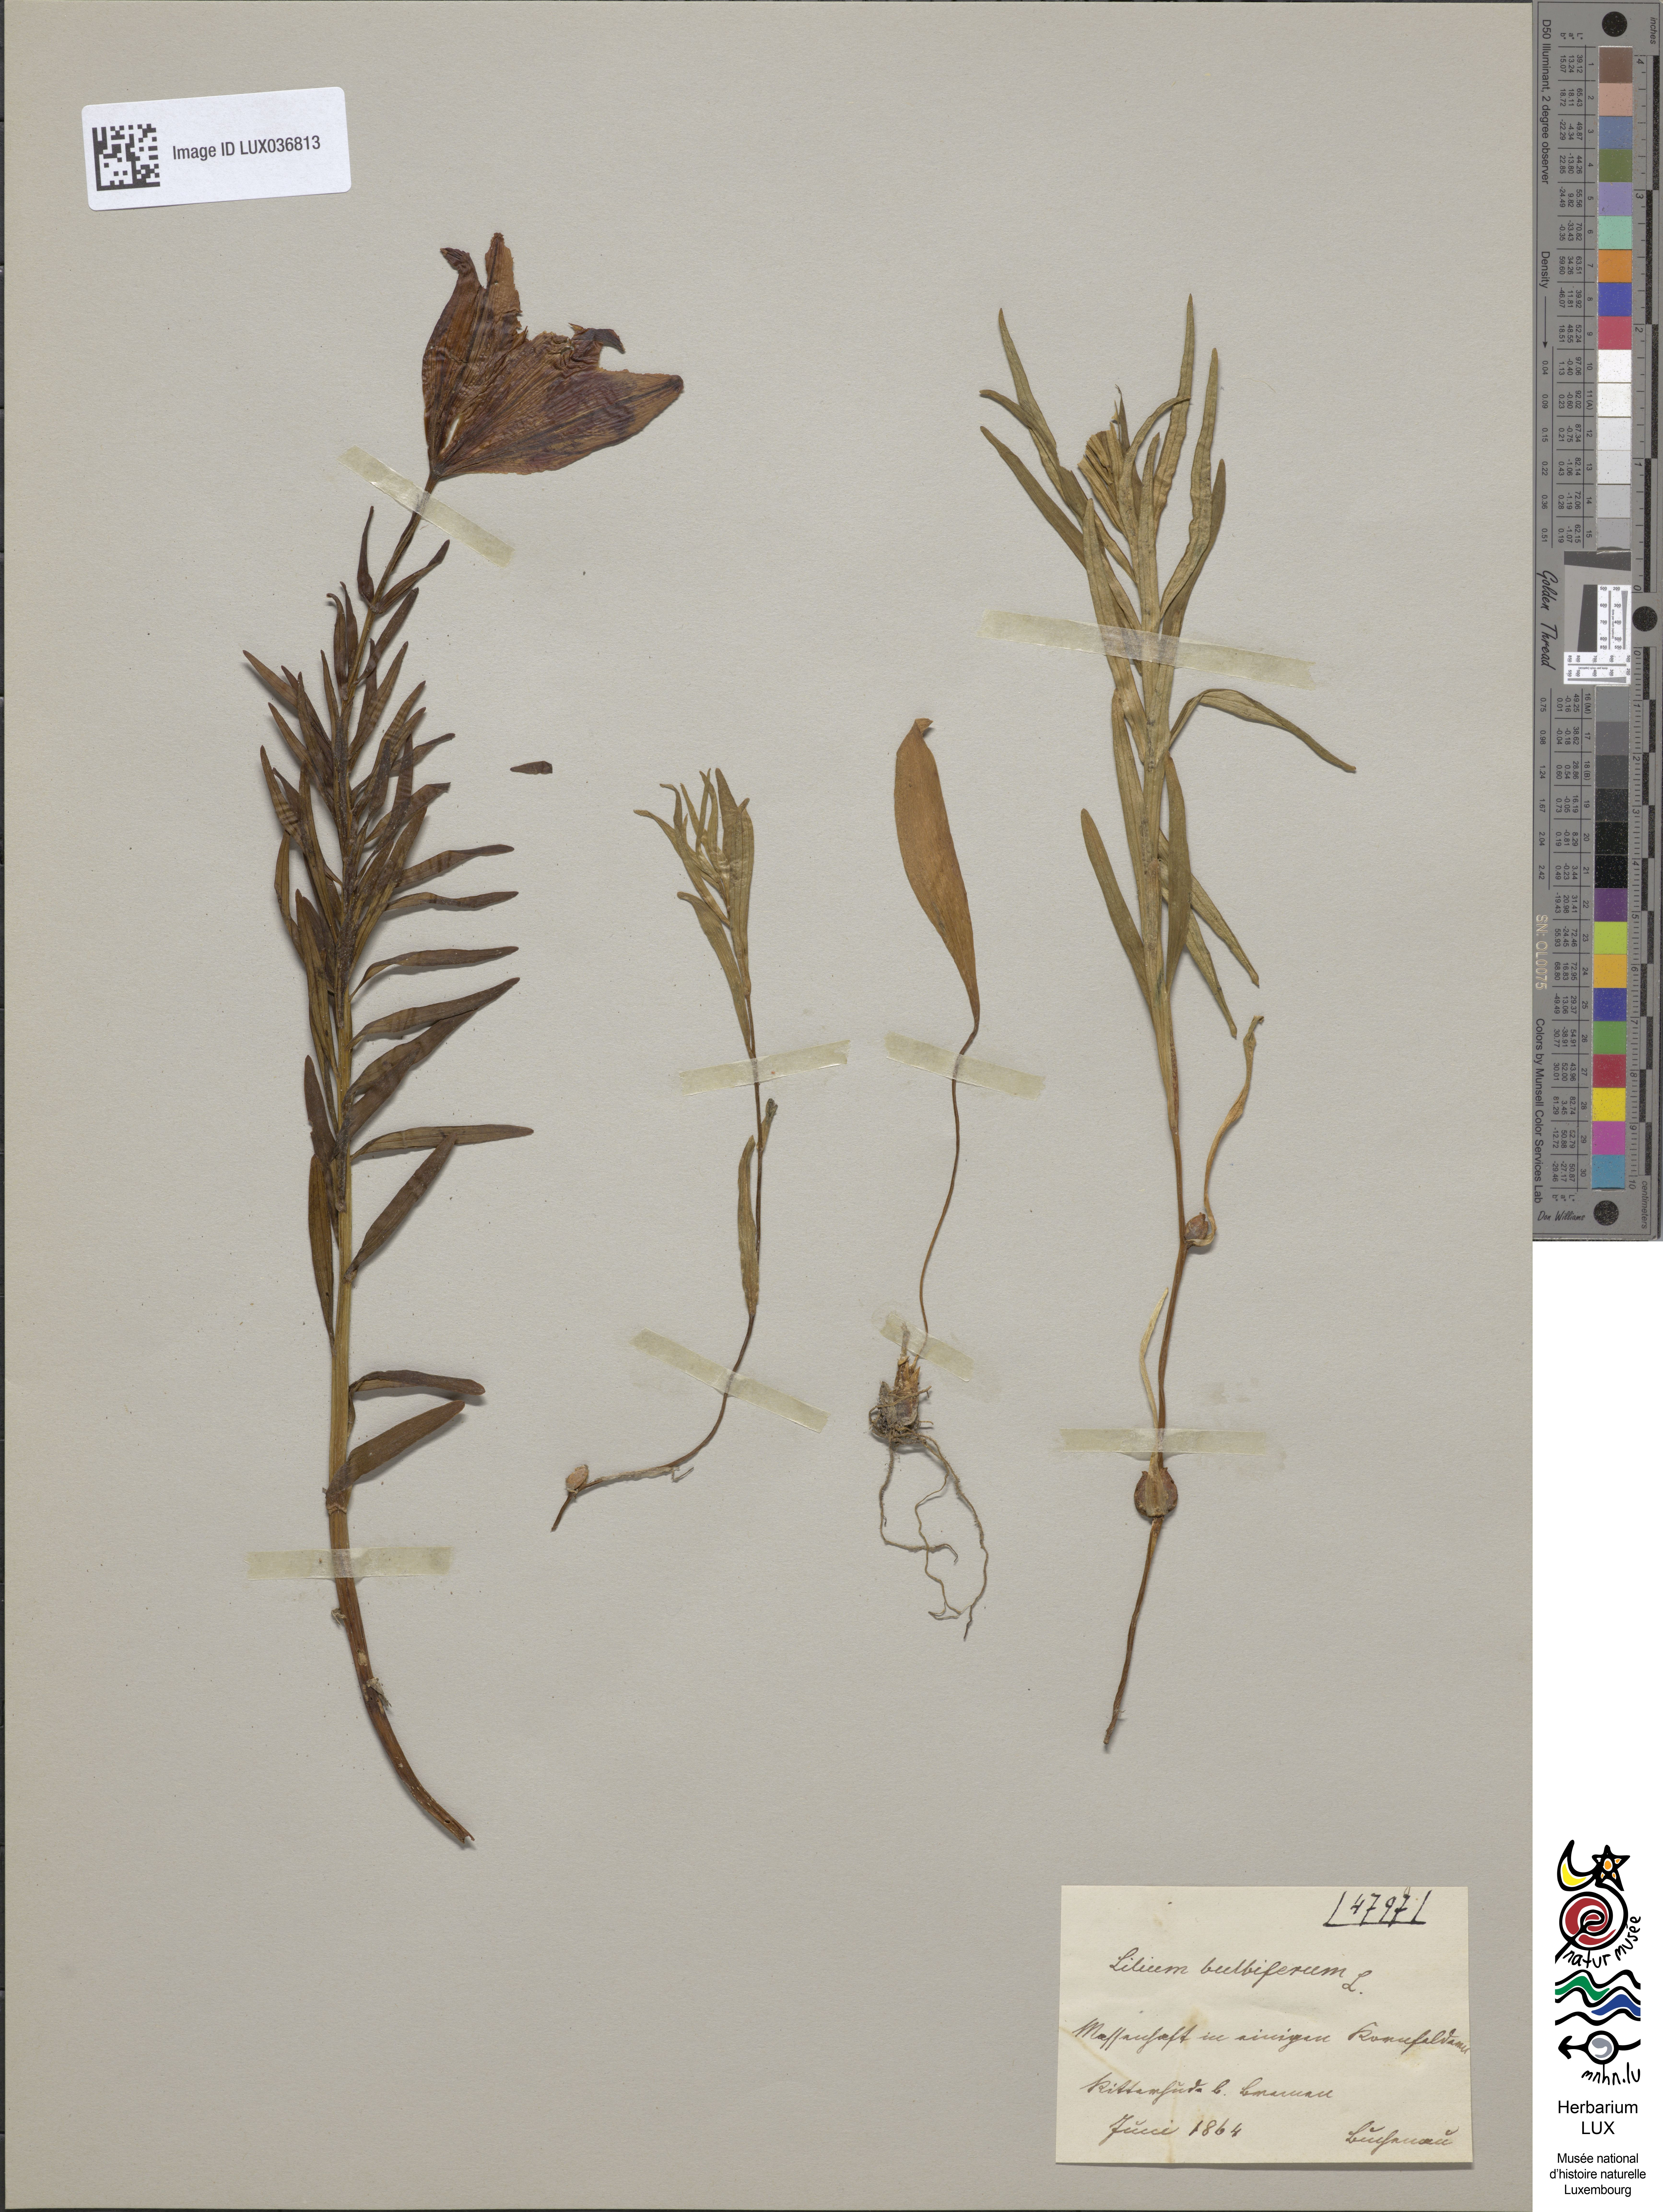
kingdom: Plantae
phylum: Tracheophyta
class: Liliopsida
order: Liliales
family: Liliaceae
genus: Lilium
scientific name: Lilium bulbiferum
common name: Orange lily
